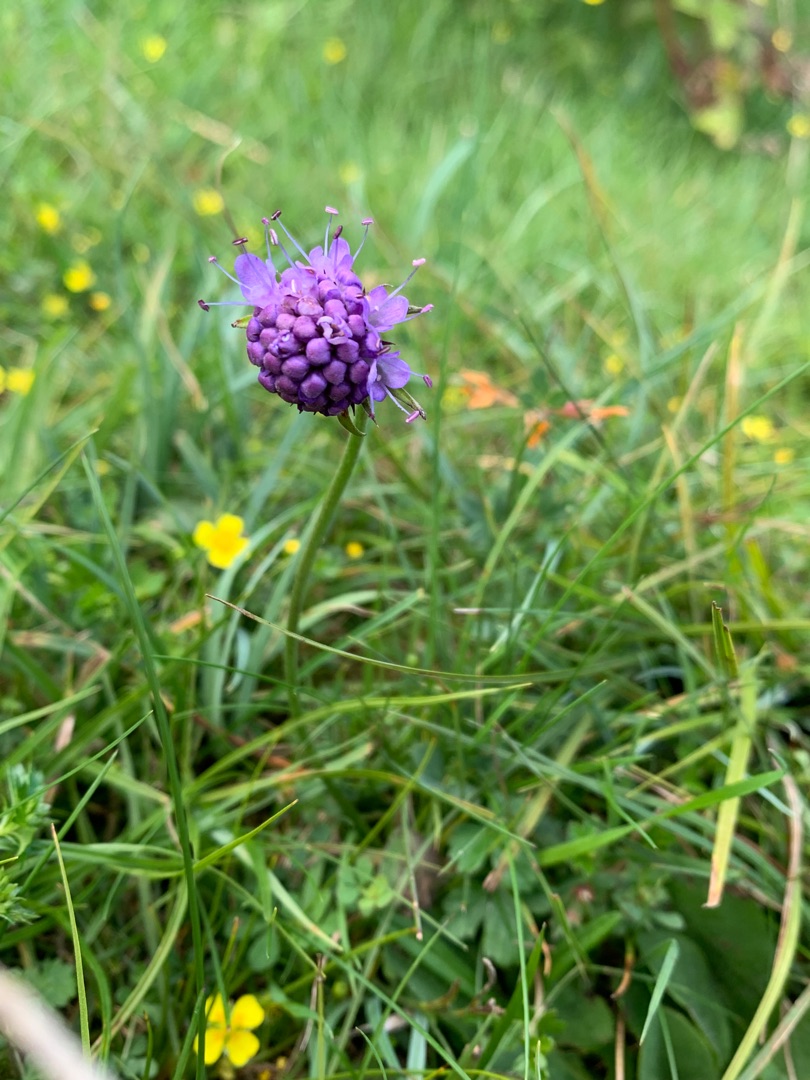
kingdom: Plantae
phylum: Tracheophyta
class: Magnoliopsida
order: Dipsacales
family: Caprifoliaceae
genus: Succisa
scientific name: Succisa pratensis
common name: Djævelsbid
